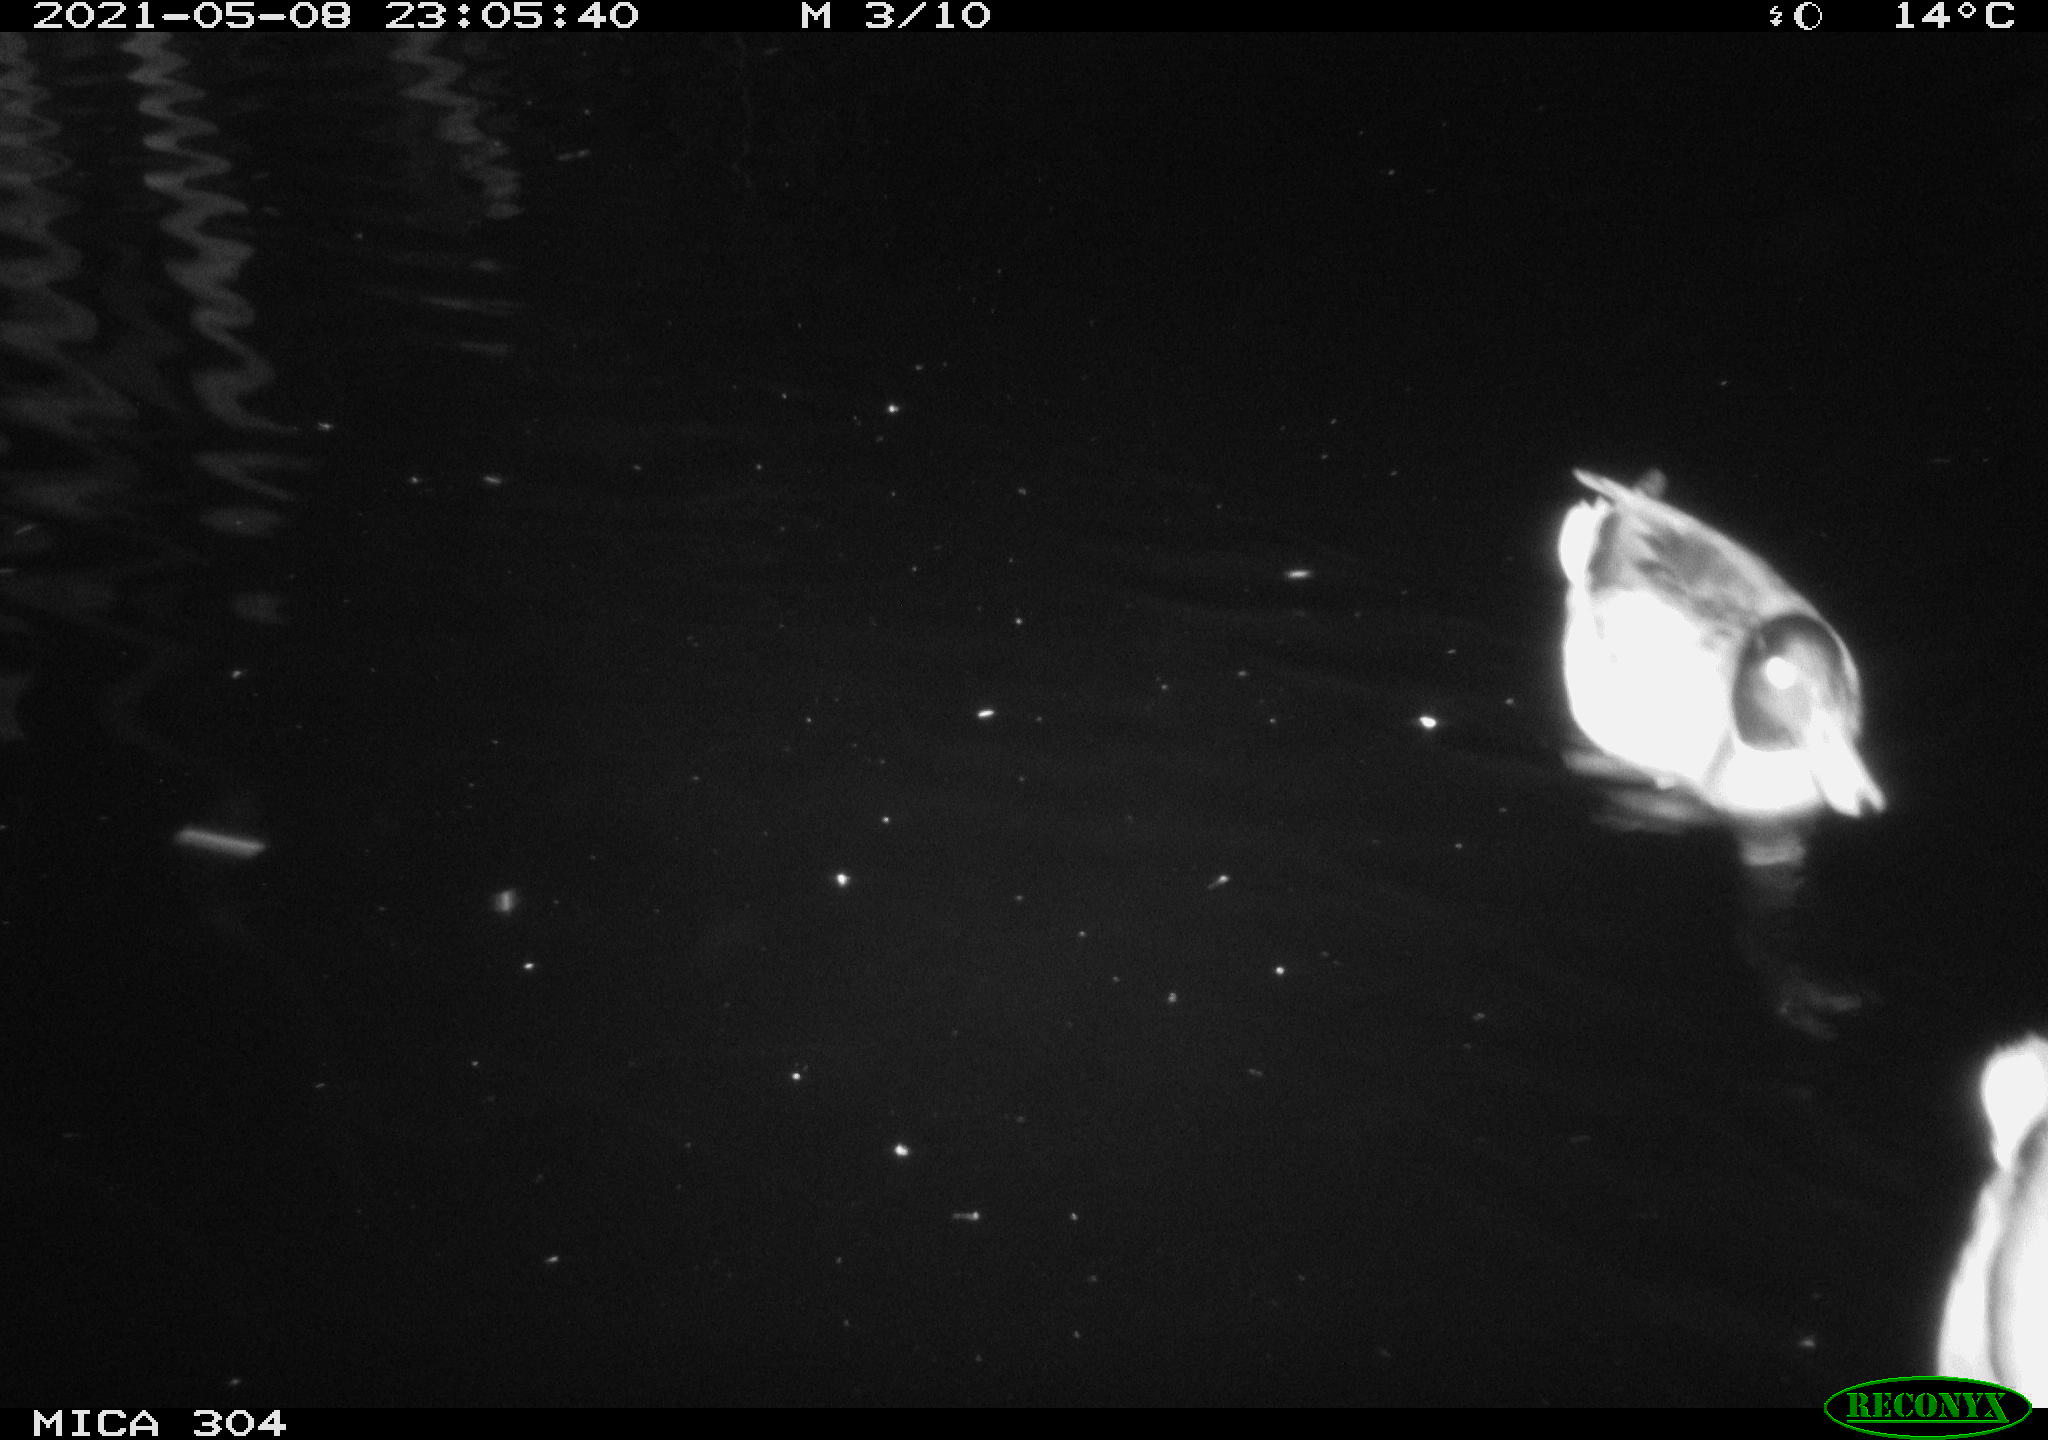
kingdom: Animalia
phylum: Chordata
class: Aves
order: Anseriformes
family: Anatidae
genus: Anas
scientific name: Anas platyrhynchos
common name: Mallard
